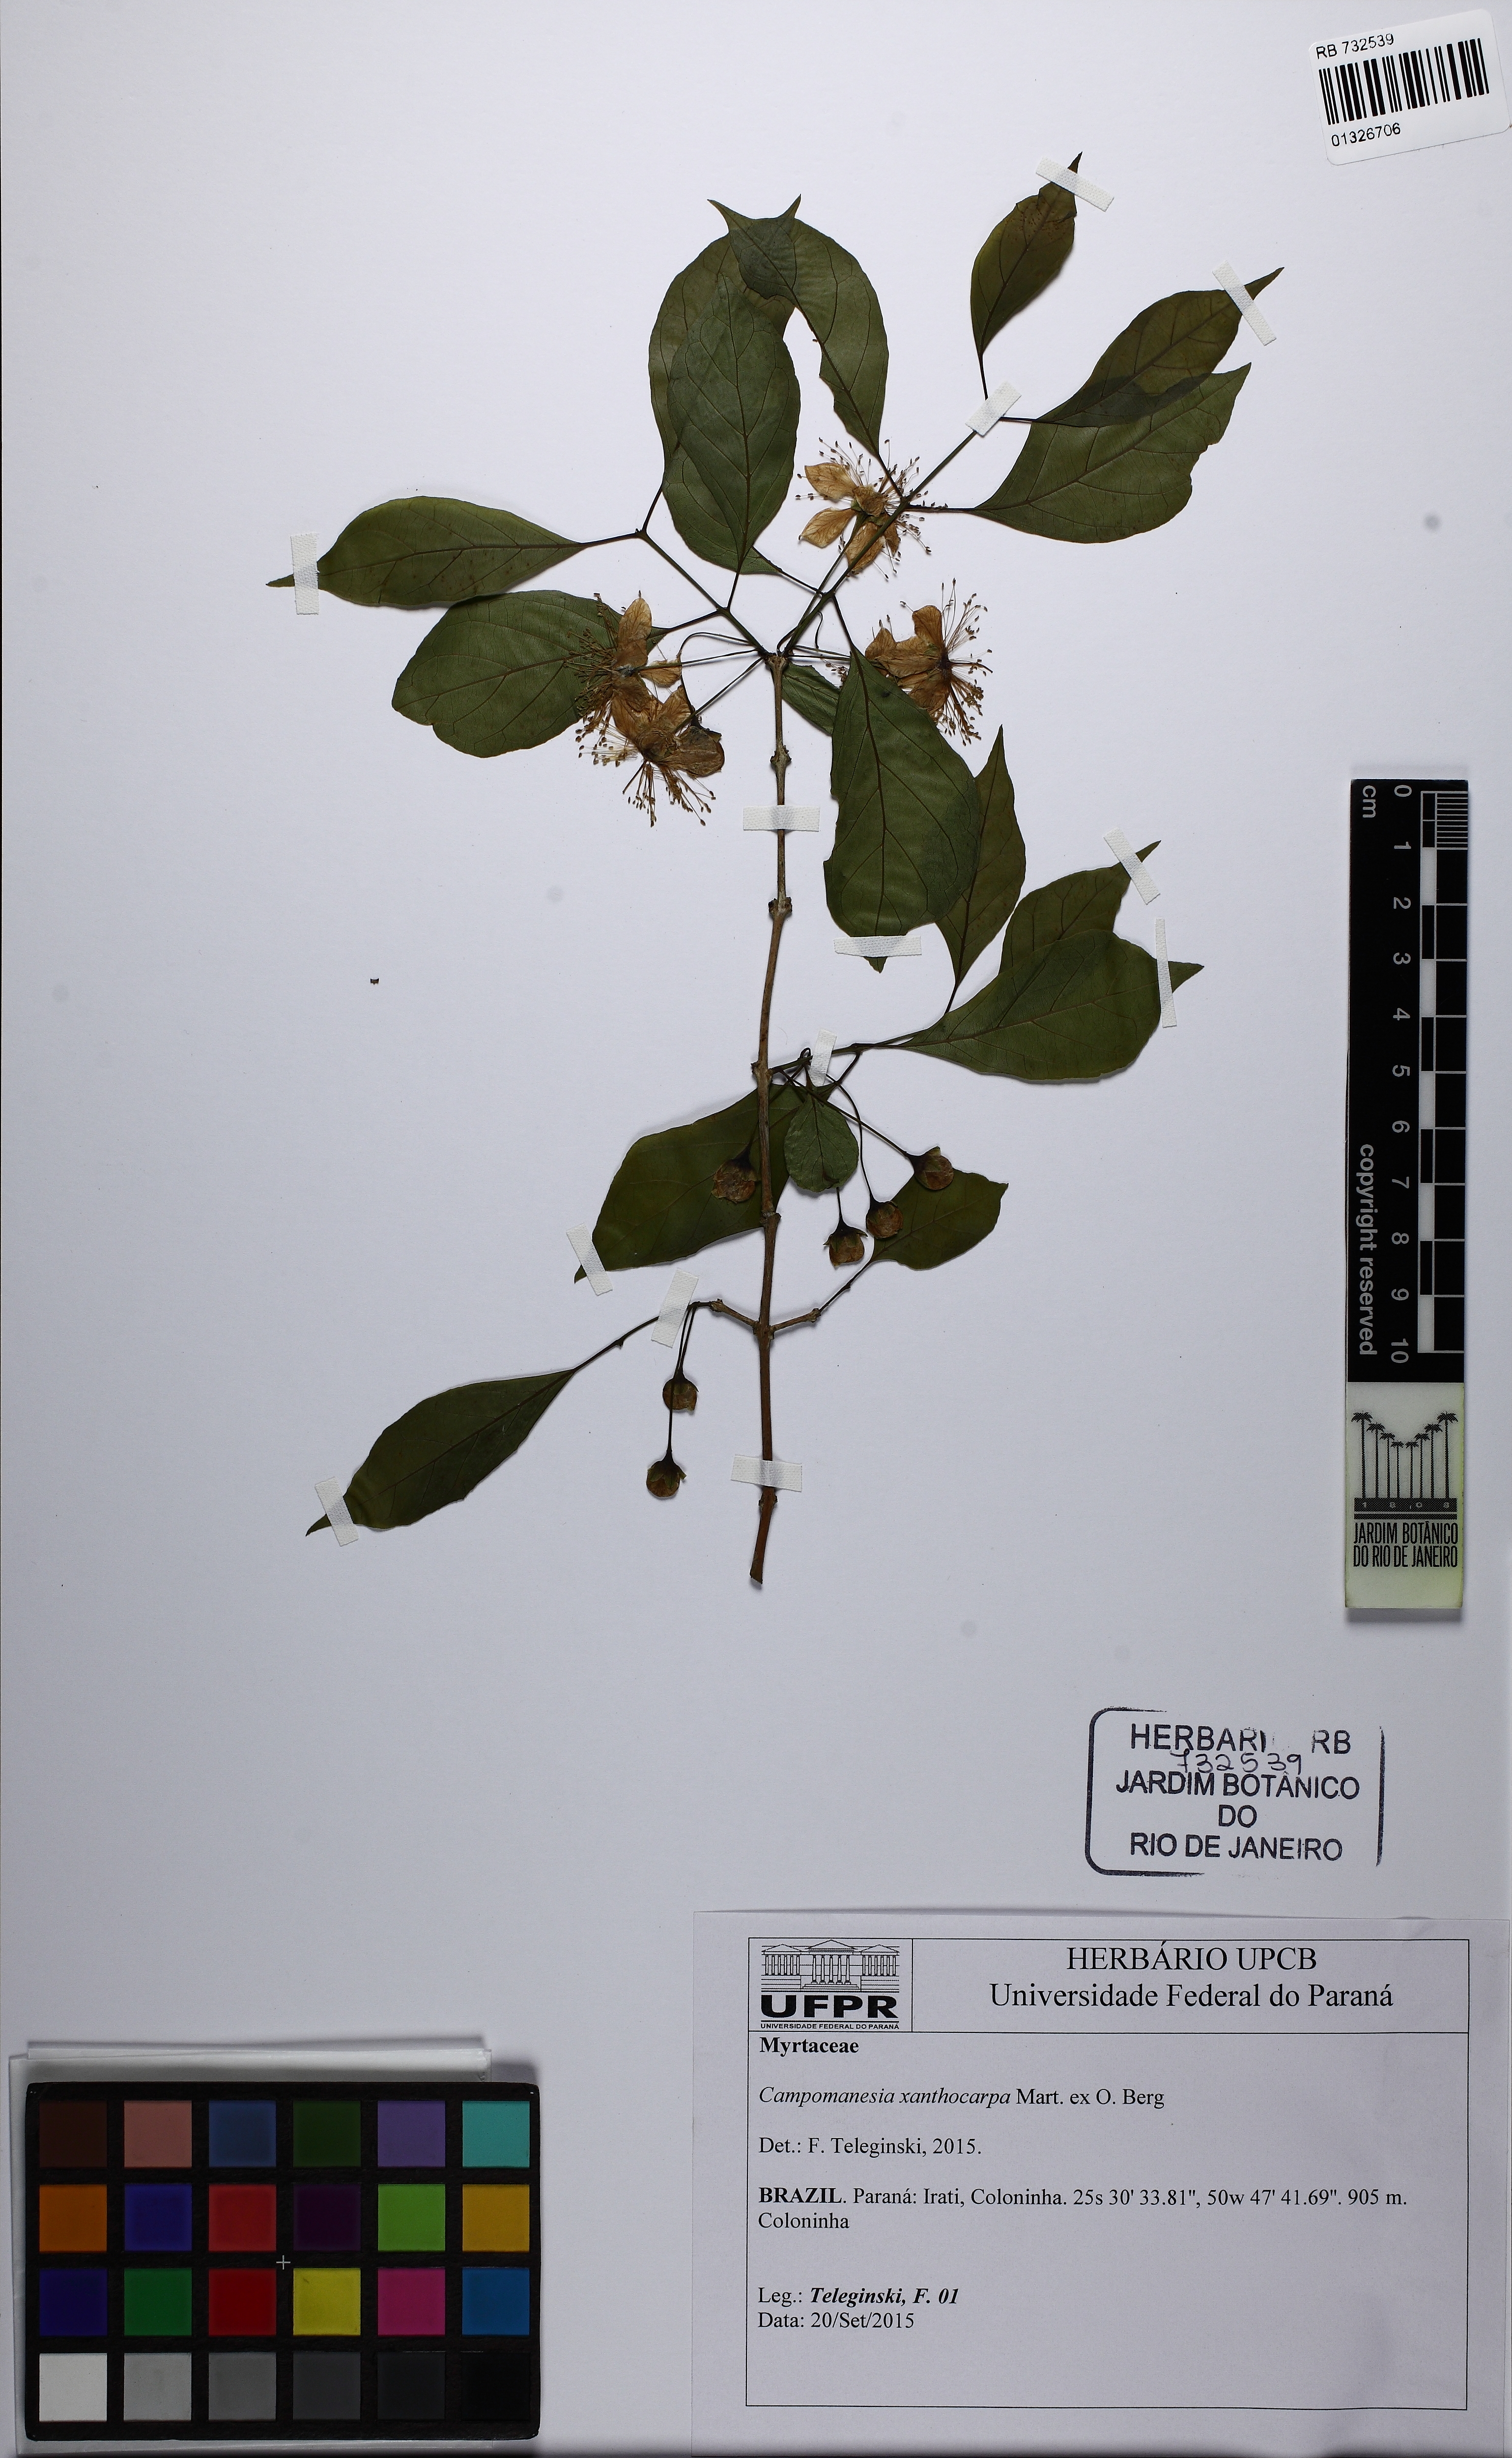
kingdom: Plantae
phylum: Tracheophyta
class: Magnoliopsida
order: Myrtales
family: Myrtaceae
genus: Campomanesia
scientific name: Campomanesia xanthocarpa
